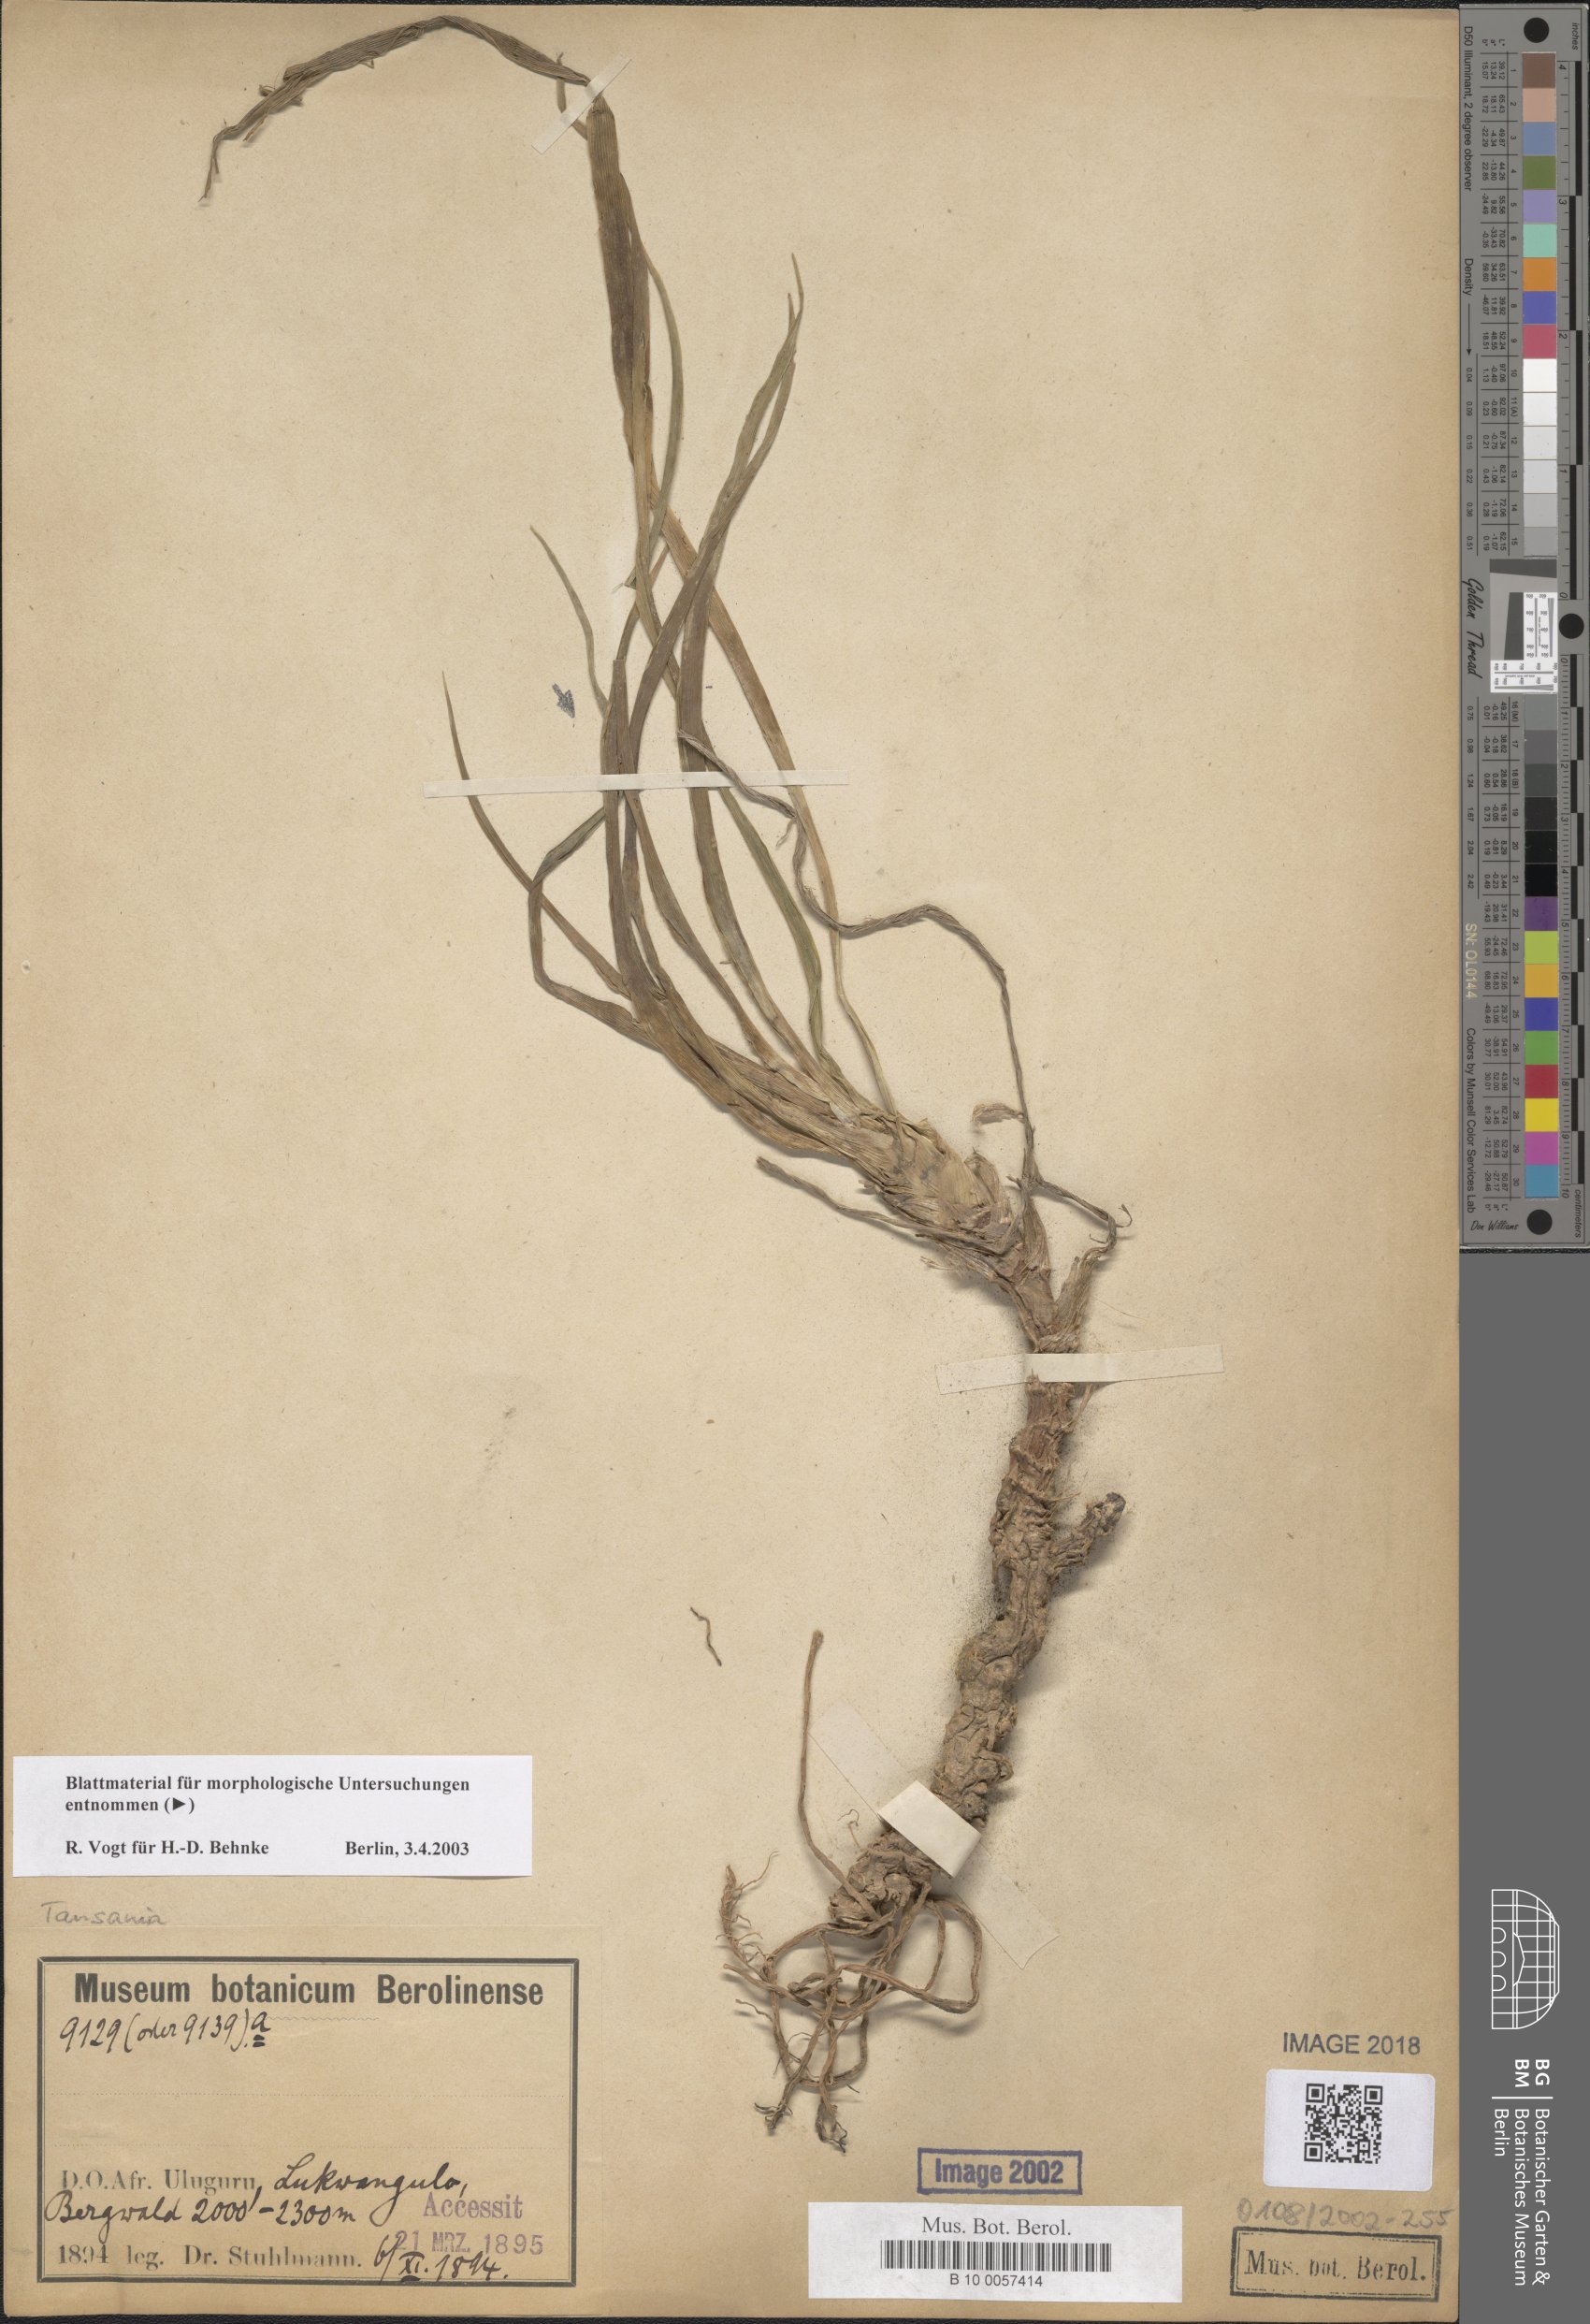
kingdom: Plantae
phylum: Tracheophyta
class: Liliopsida
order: Pandanales
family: Velloziaceae
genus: Xerophyta
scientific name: Xerophyta
